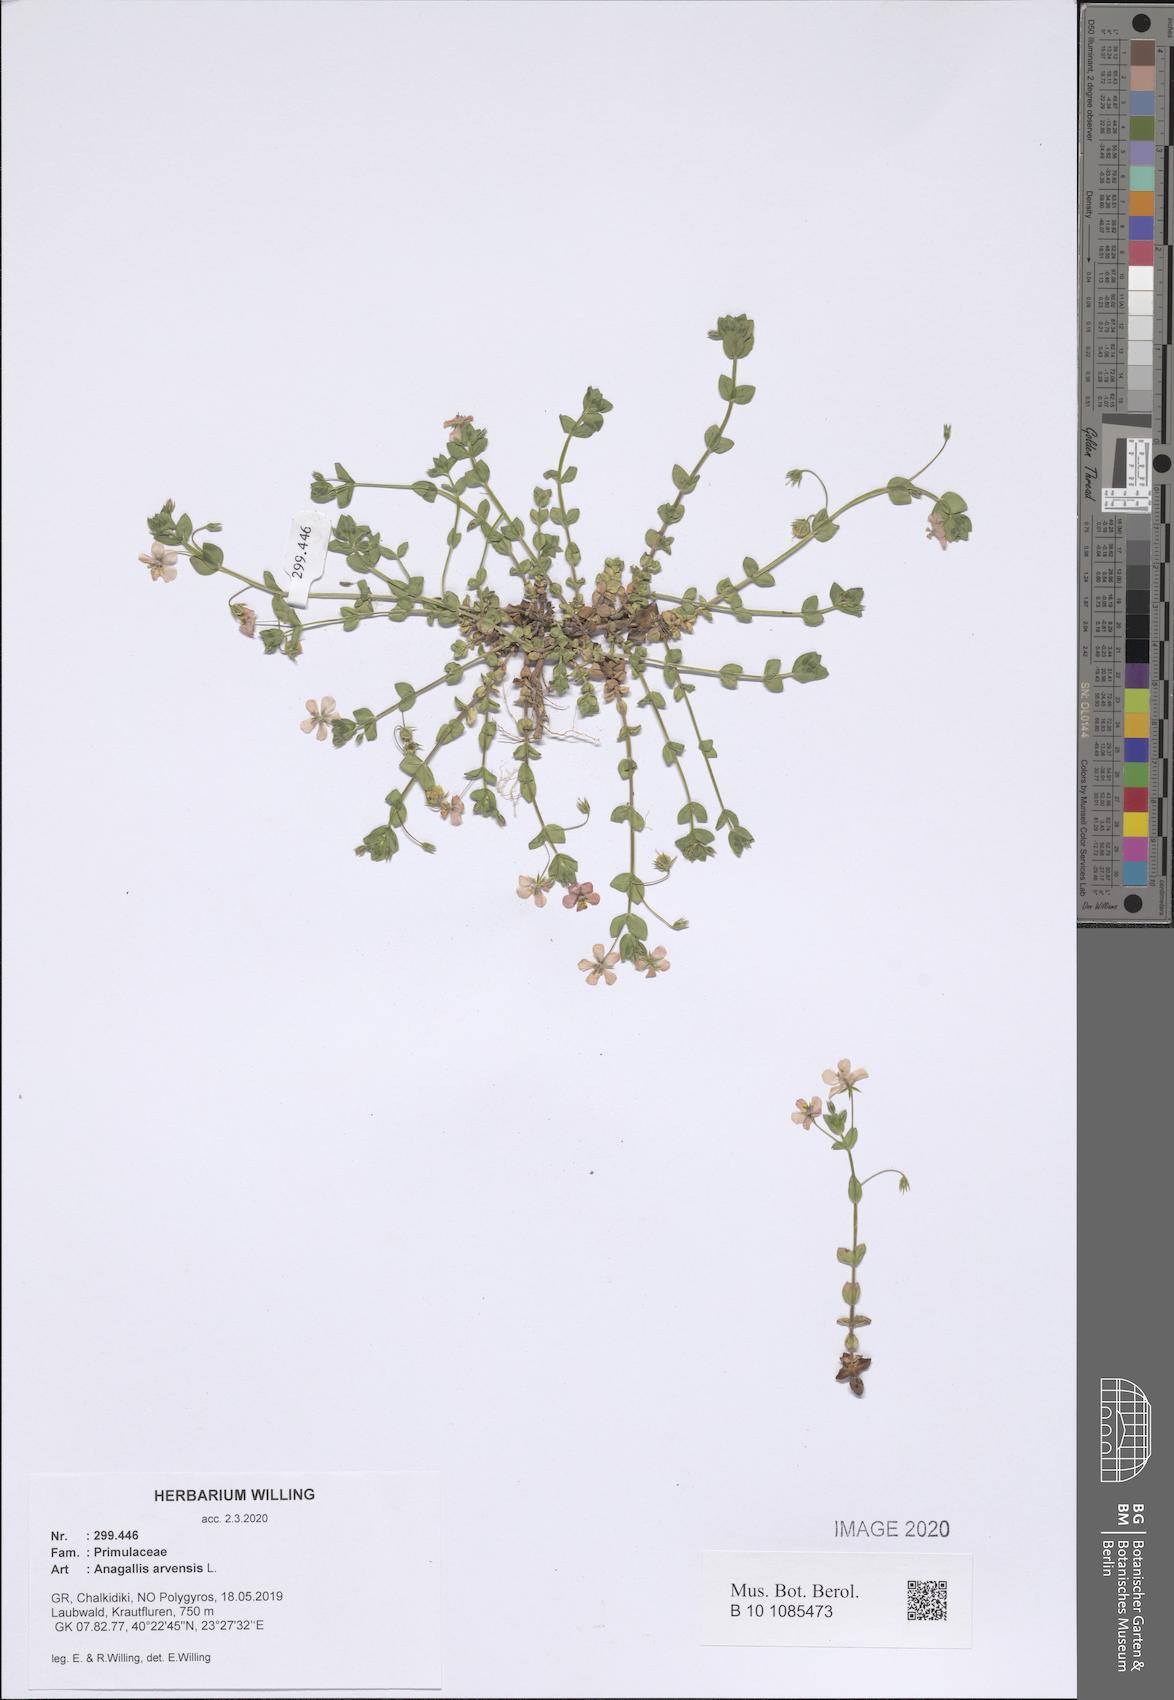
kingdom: Plantae
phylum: Tracheophyta
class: Magnoliopsida
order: Ericales
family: Primulaceae
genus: Lysimachia
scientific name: Lysimachia arvensis
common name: Scarlet pimpernel
